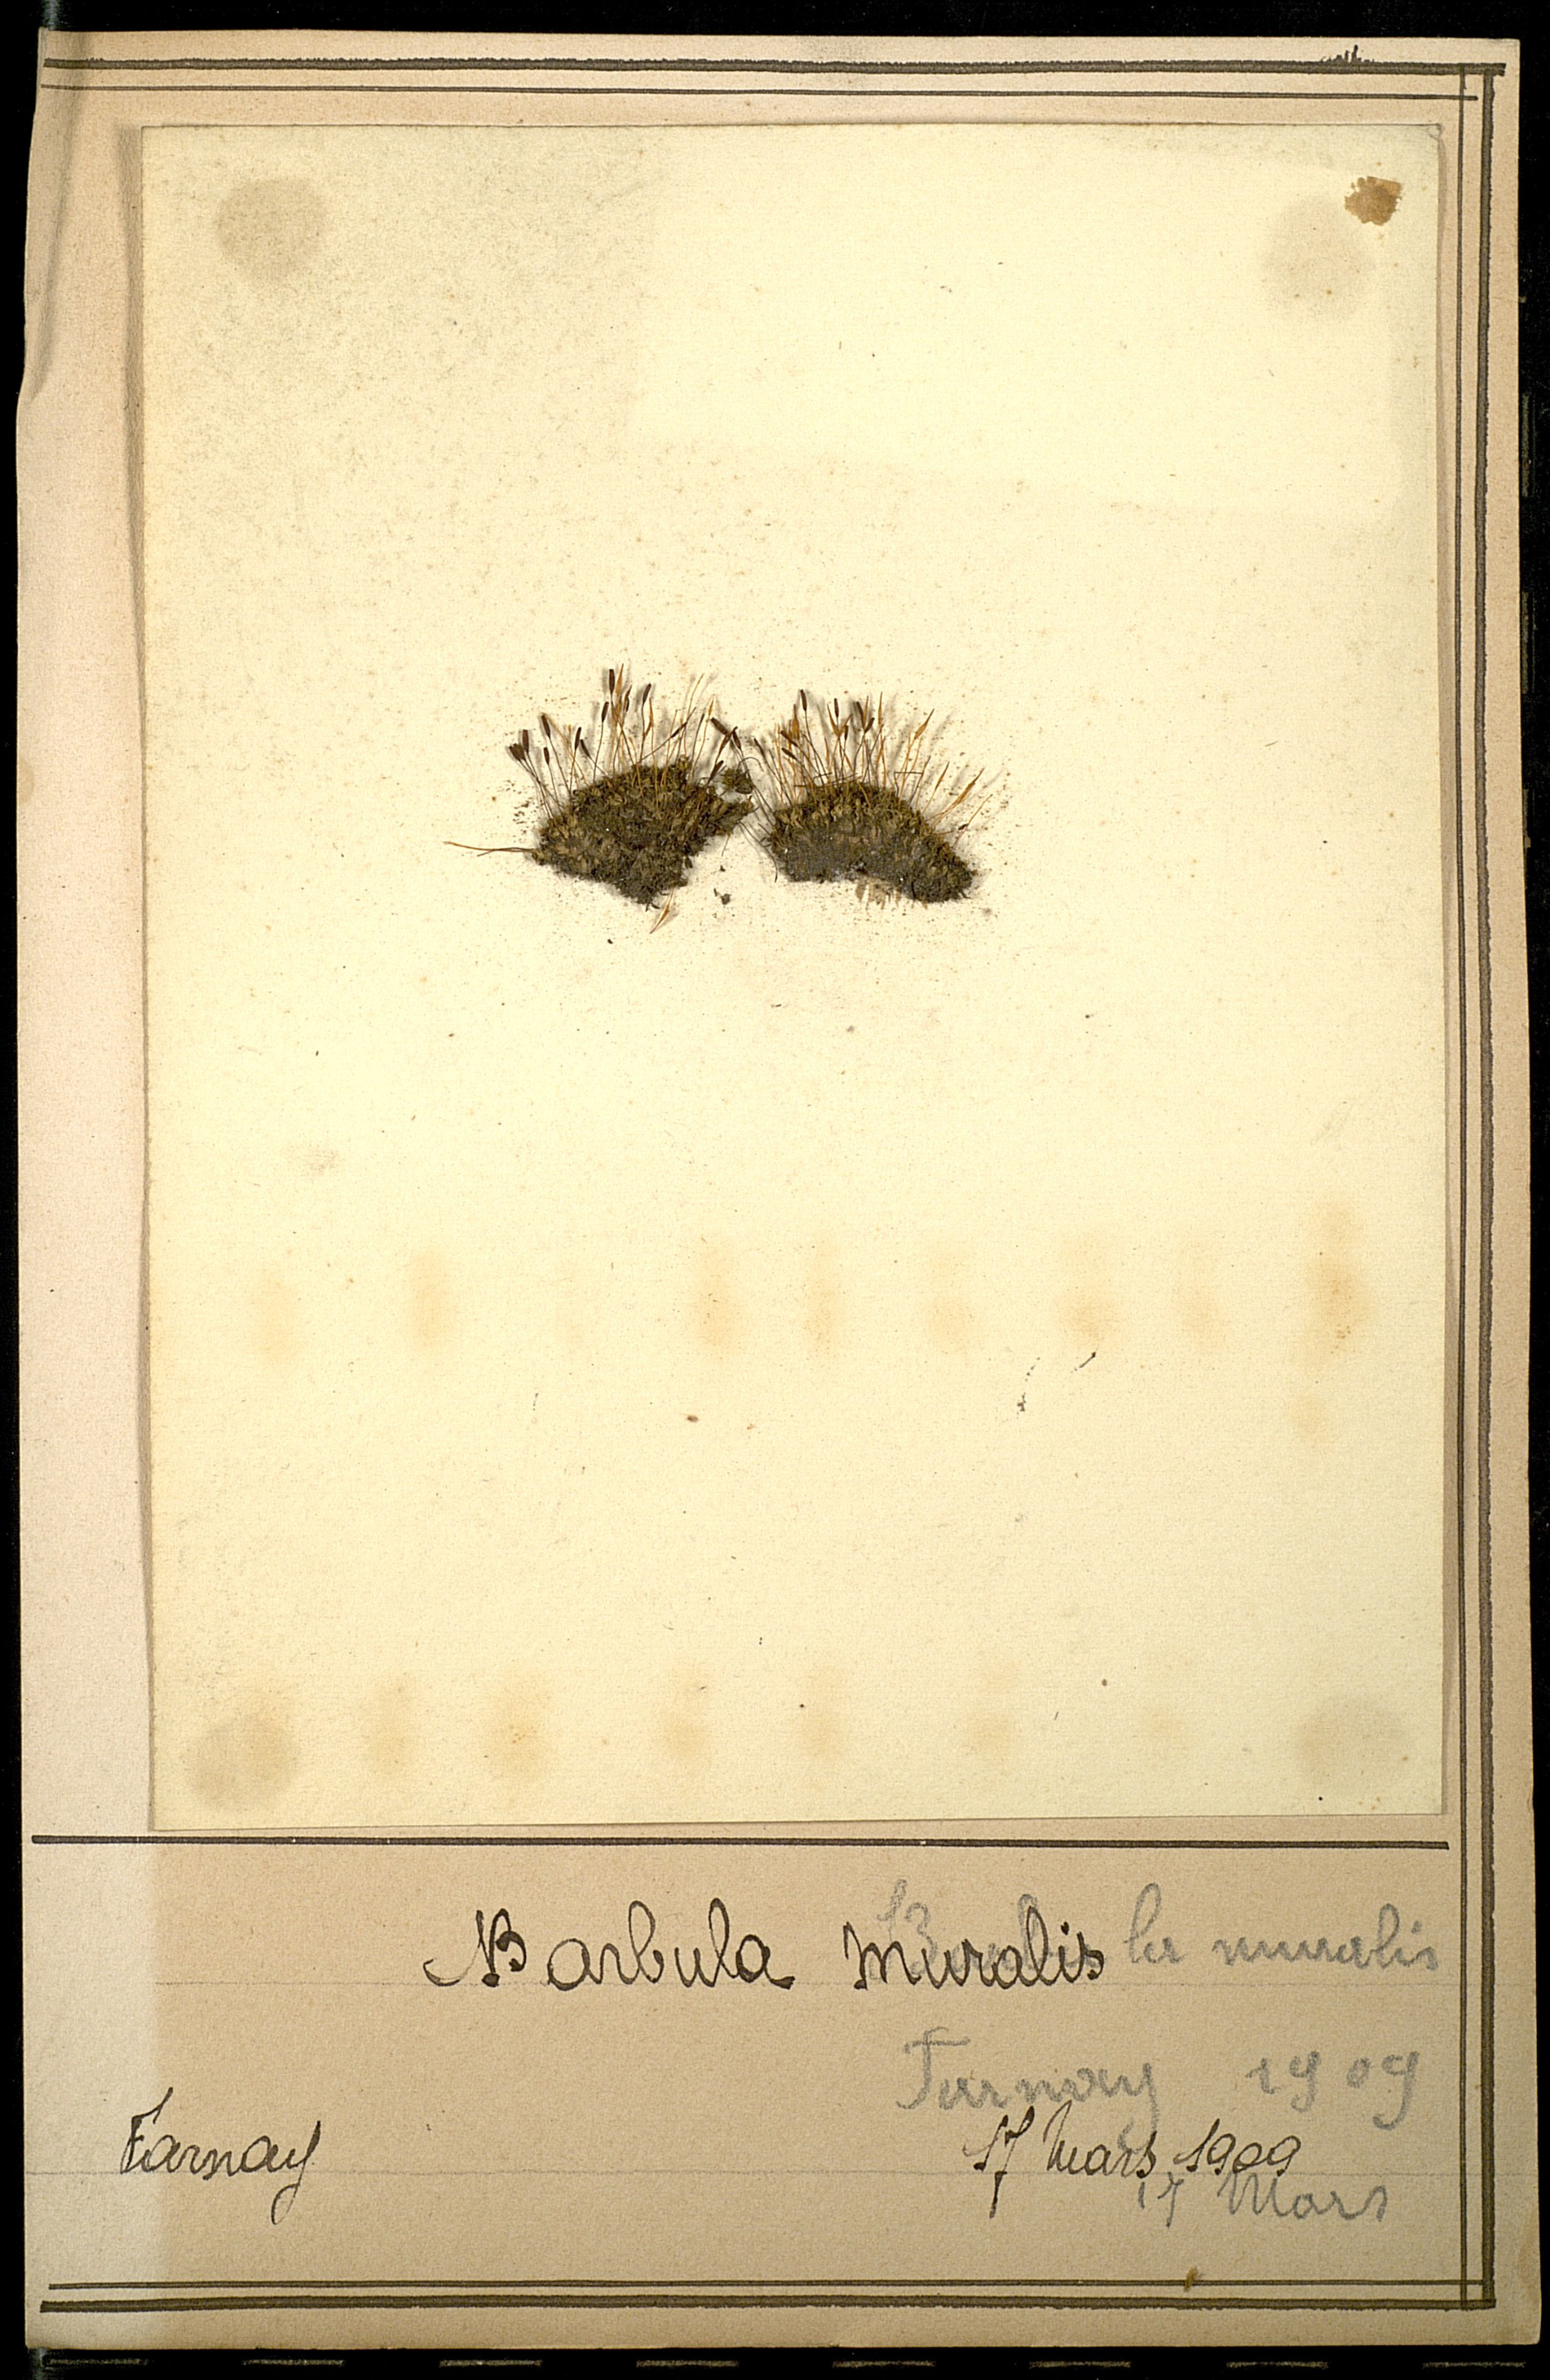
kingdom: Plantae
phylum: Bryophyta
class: Bryopsida
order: Pottiales
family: Pottiaceae
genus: Tortula
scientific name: Tortula muralis
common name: Wall screw-moss
